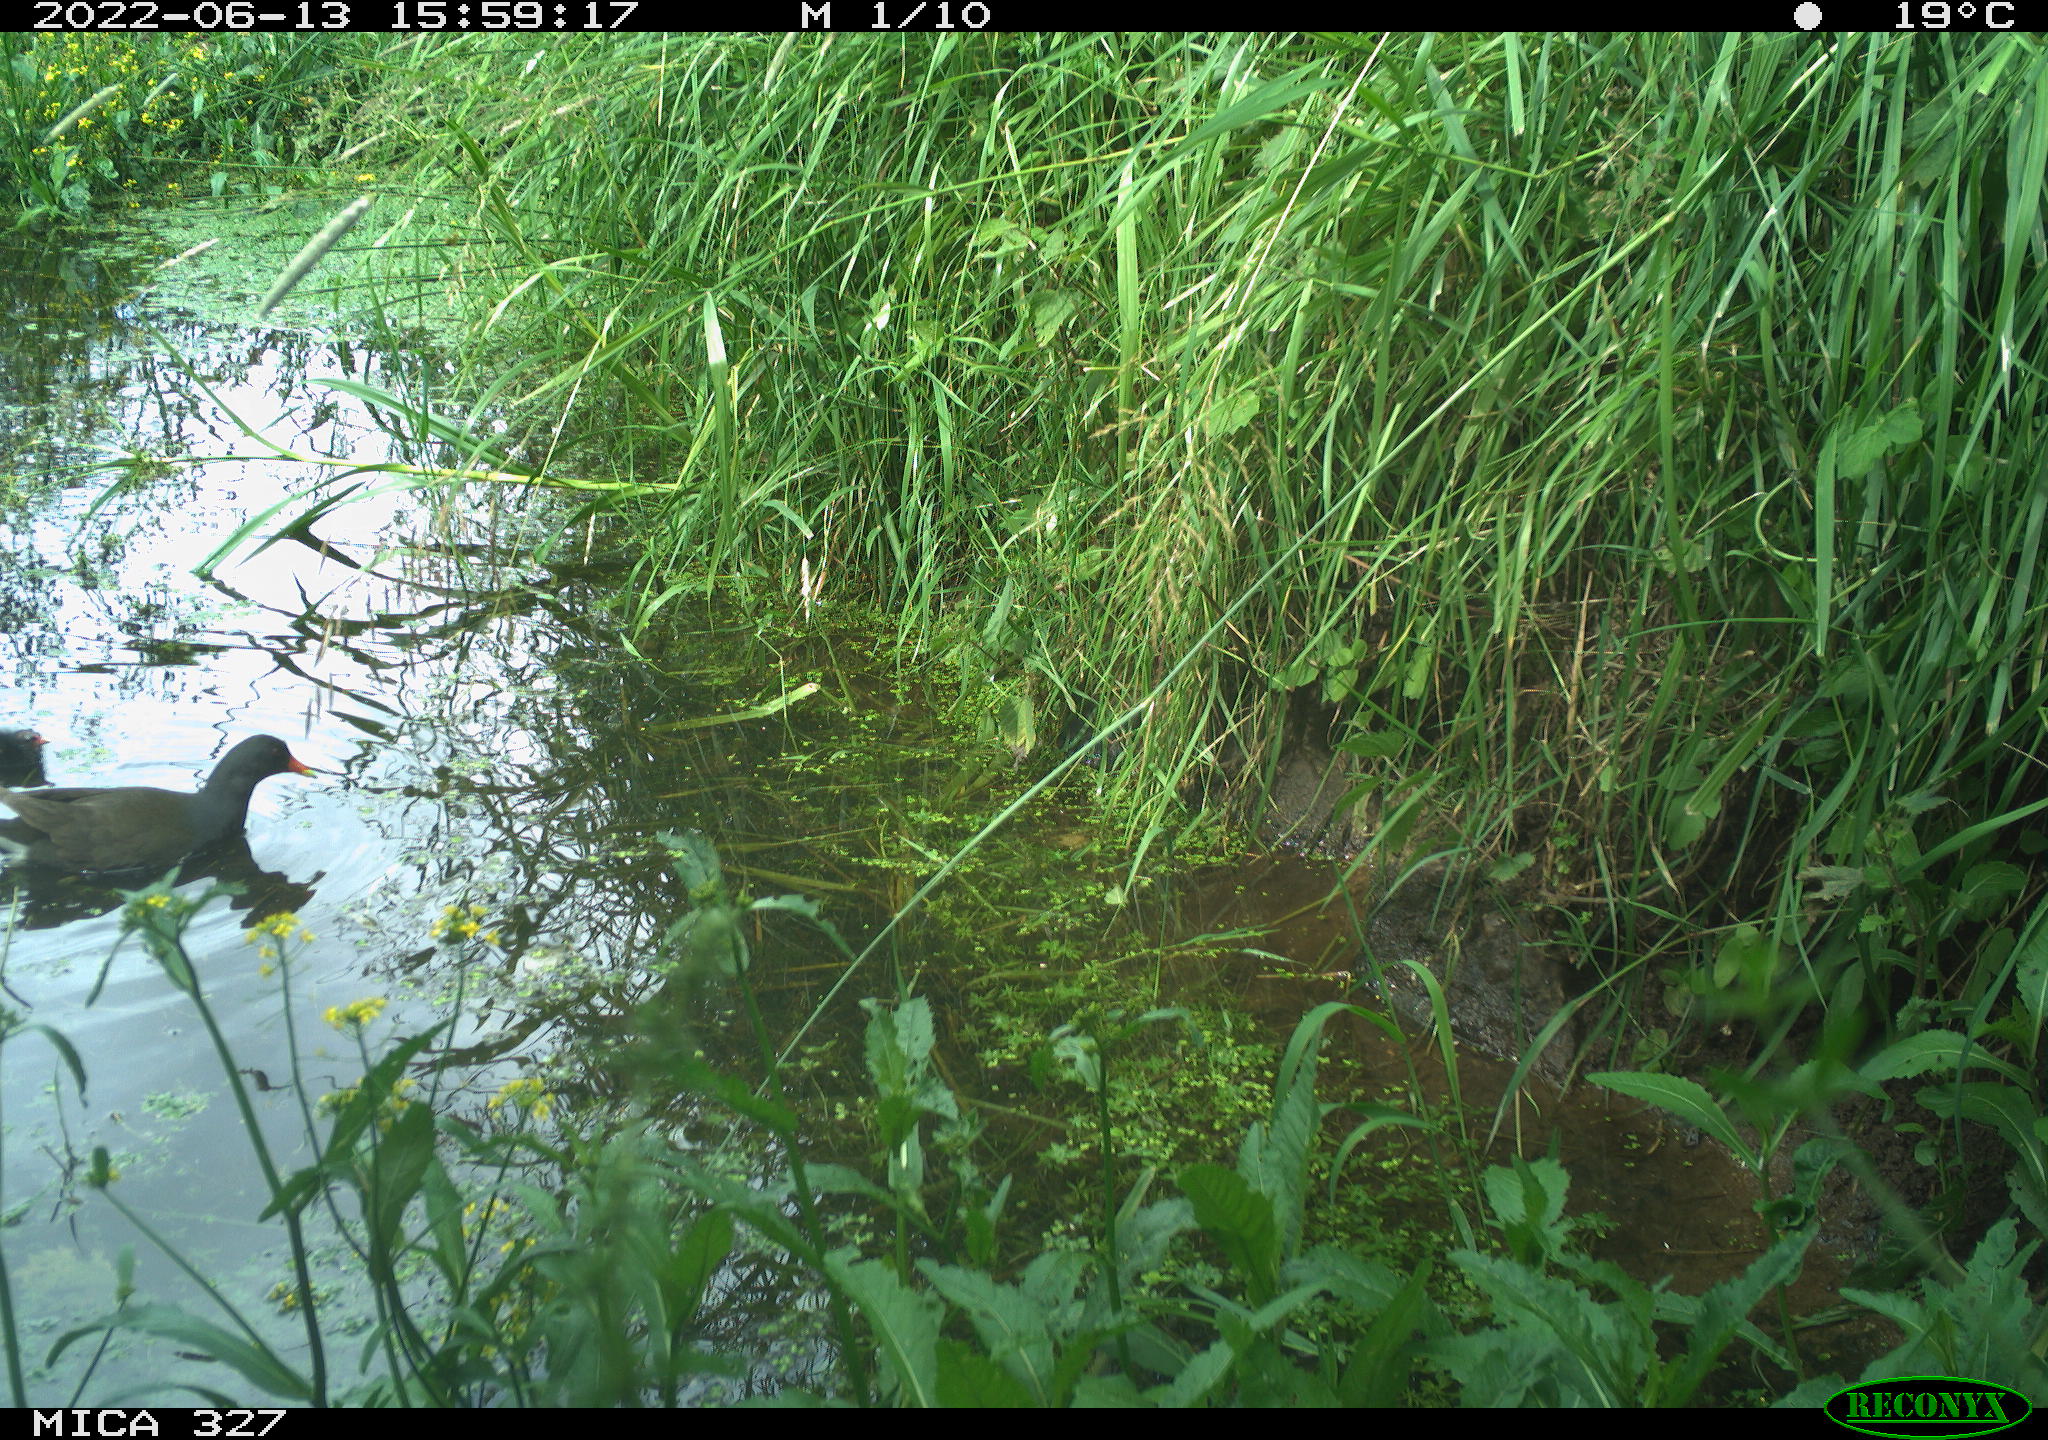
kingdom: Animalia
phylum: Chordata
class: Aves
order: Gruiformes
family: Rallidae
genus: Gallinula
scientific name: Gallinula chloropus
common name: Common moorhen
